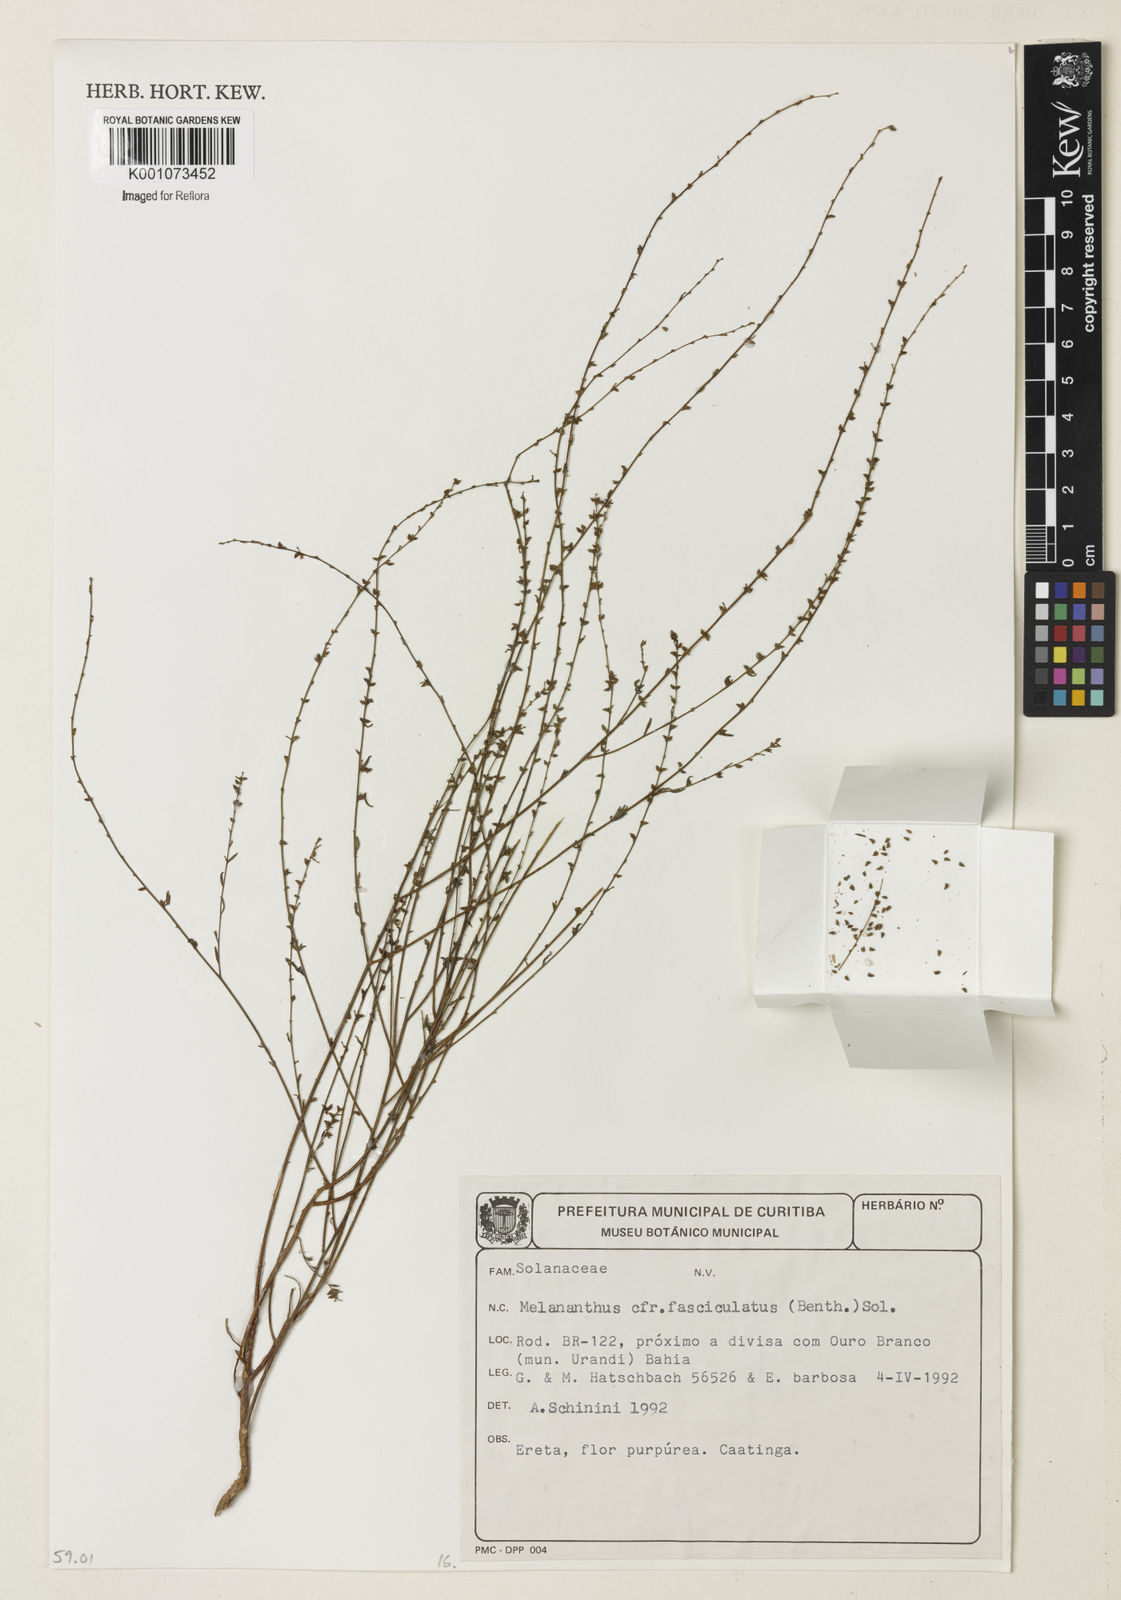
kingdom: Plantae
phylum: Tracheophyta
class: Magnoliopsida
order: Solanales
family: Solanaceae
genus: Melananthus
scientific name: Melananthus guatemalensis
